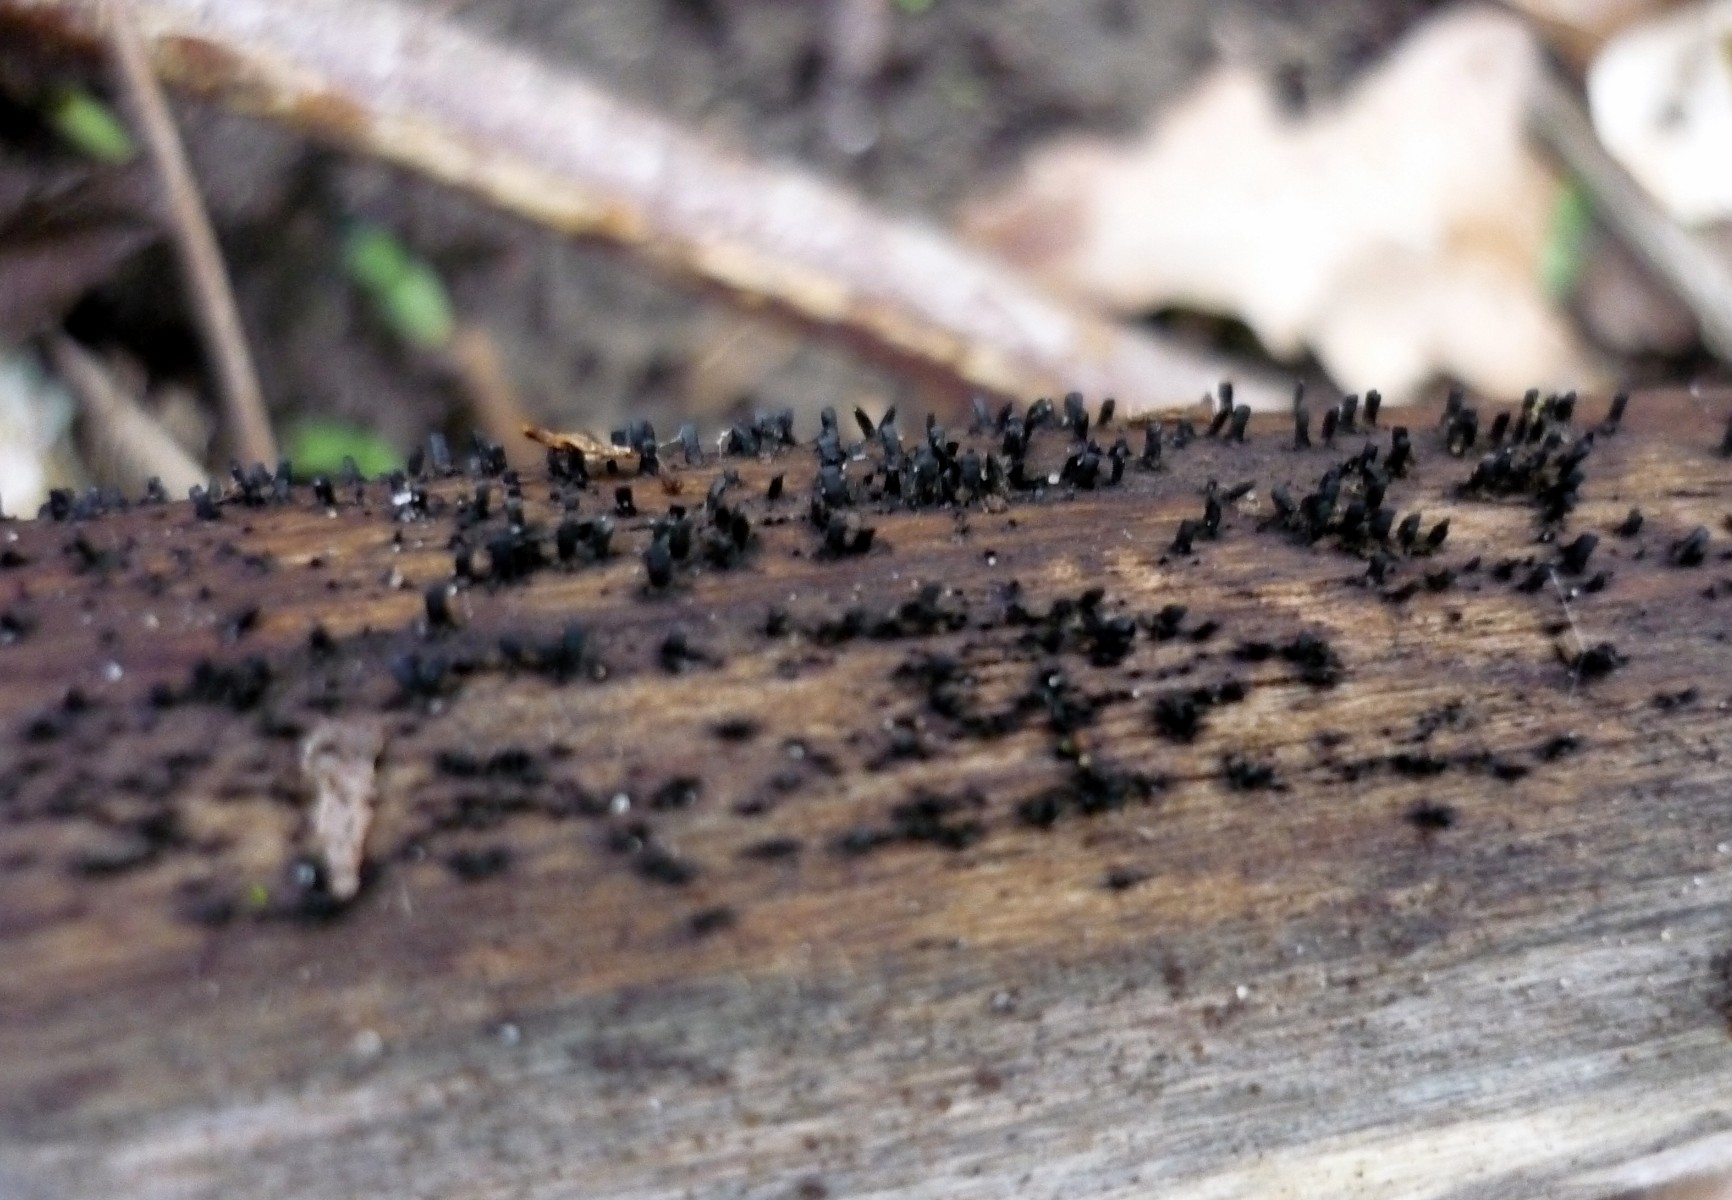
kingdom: Fungi
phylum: Ascomycota
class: Eurotiomycetes
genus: Glyphium
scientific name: Glyphium elatum
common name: kuløkse
